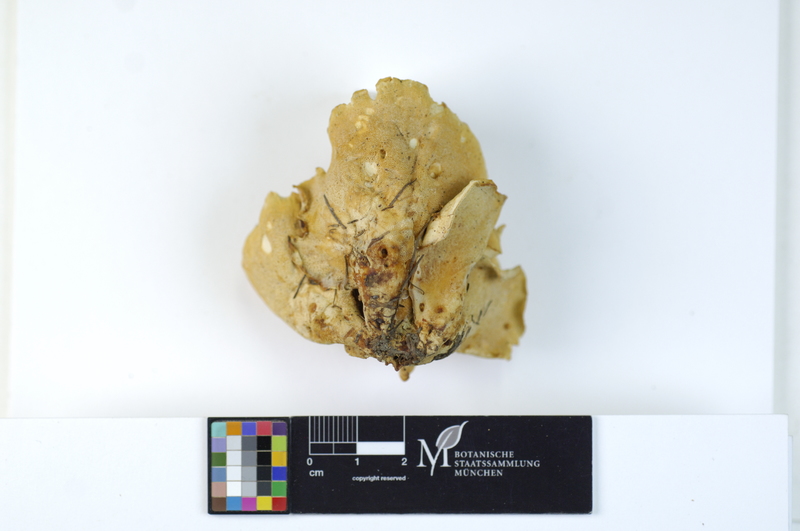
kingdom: Plantae
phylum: Tracheophyta
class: Pinopsida
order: Pinales
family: Pinaceae
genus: Larix
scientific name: Larix
